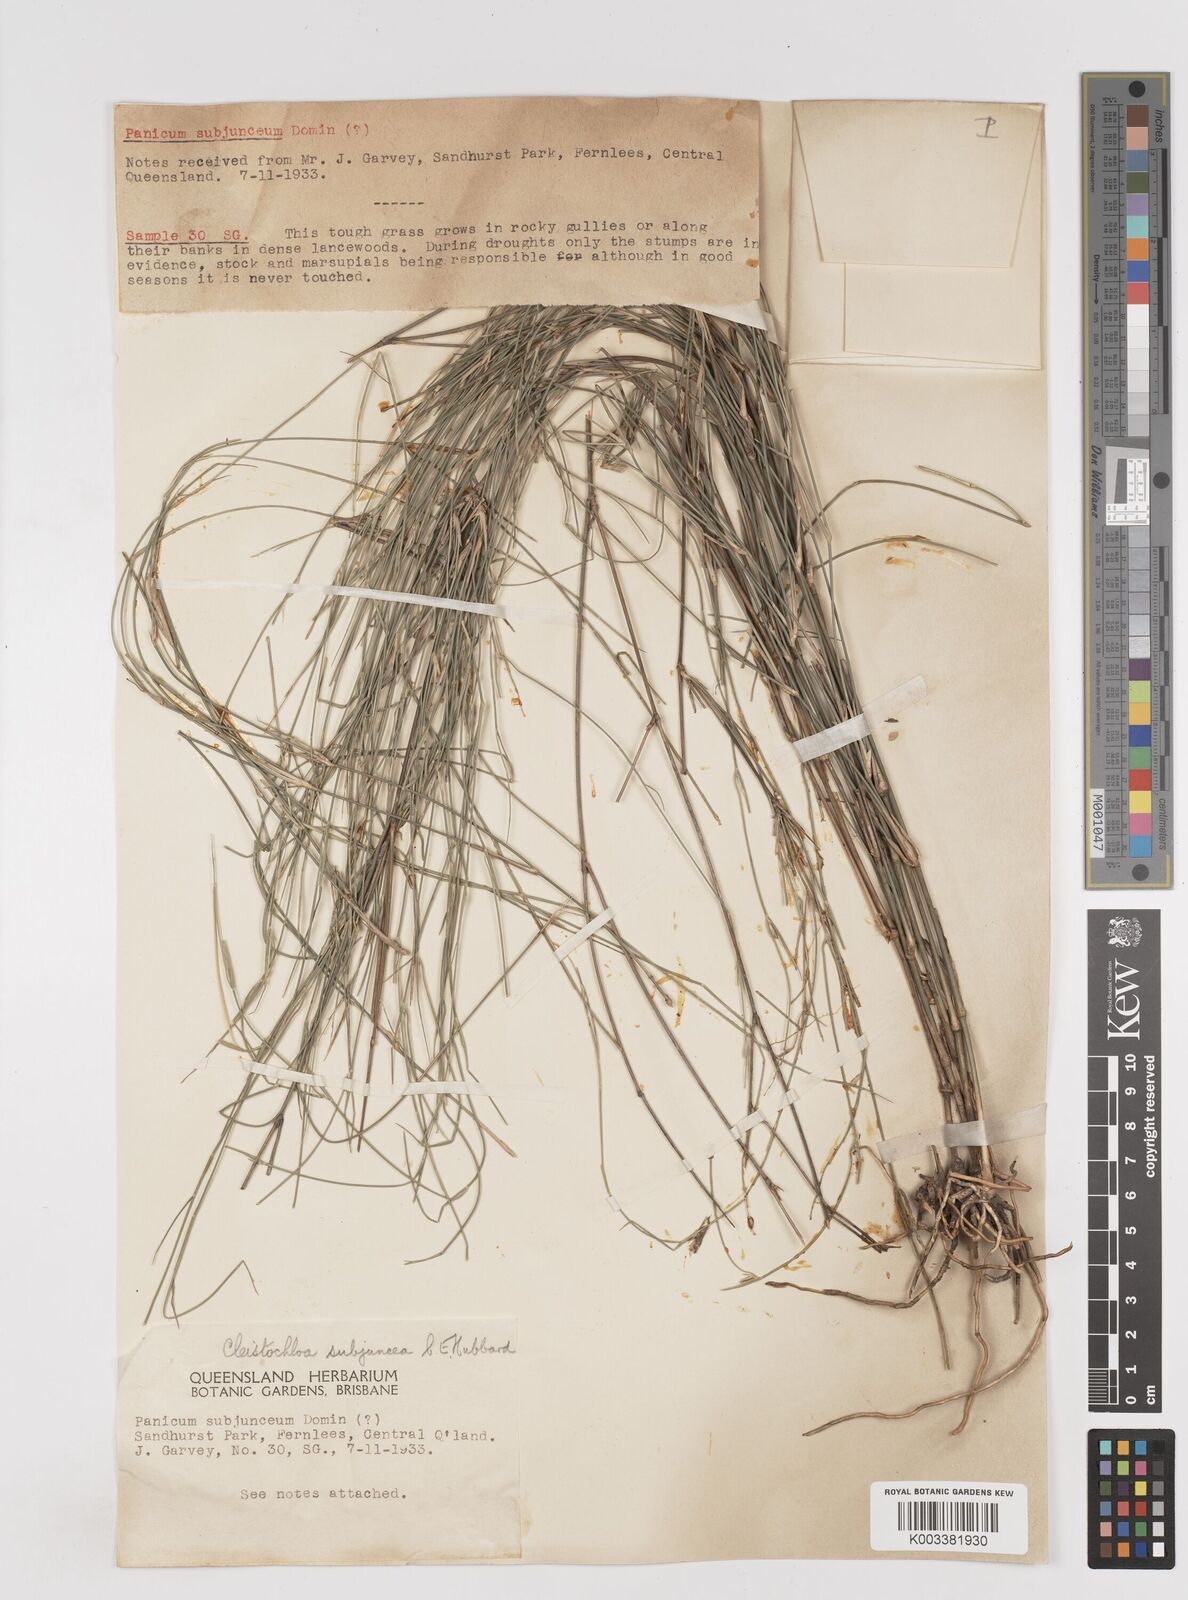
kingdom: Plantae
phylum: Tracheophyta
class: Liliopsida
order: Poales
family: Poaceae
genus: Cleistochloa
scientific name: Cleistochloa subjuncea
